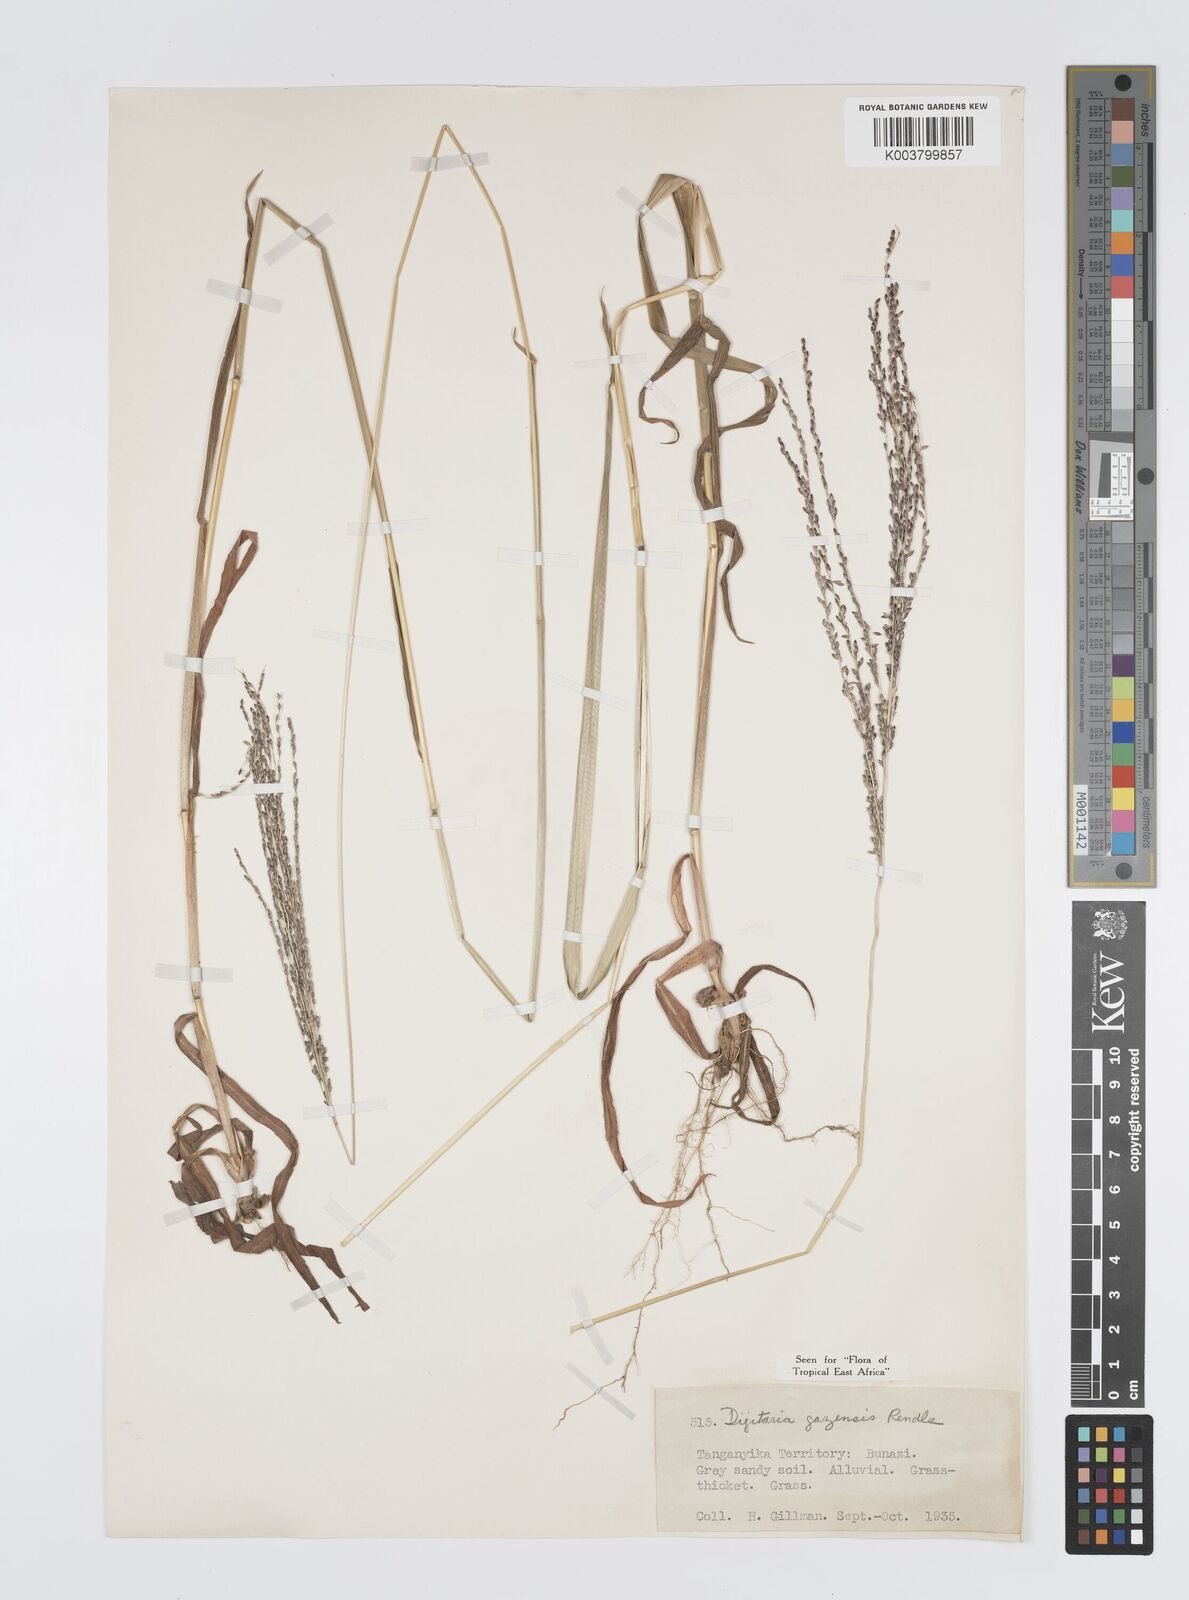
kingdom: Plantae
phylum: Tracheophyta
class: Liliopsida
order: Poales
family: Poaceae
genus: Digitaria
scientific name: Digitaria gazensis
